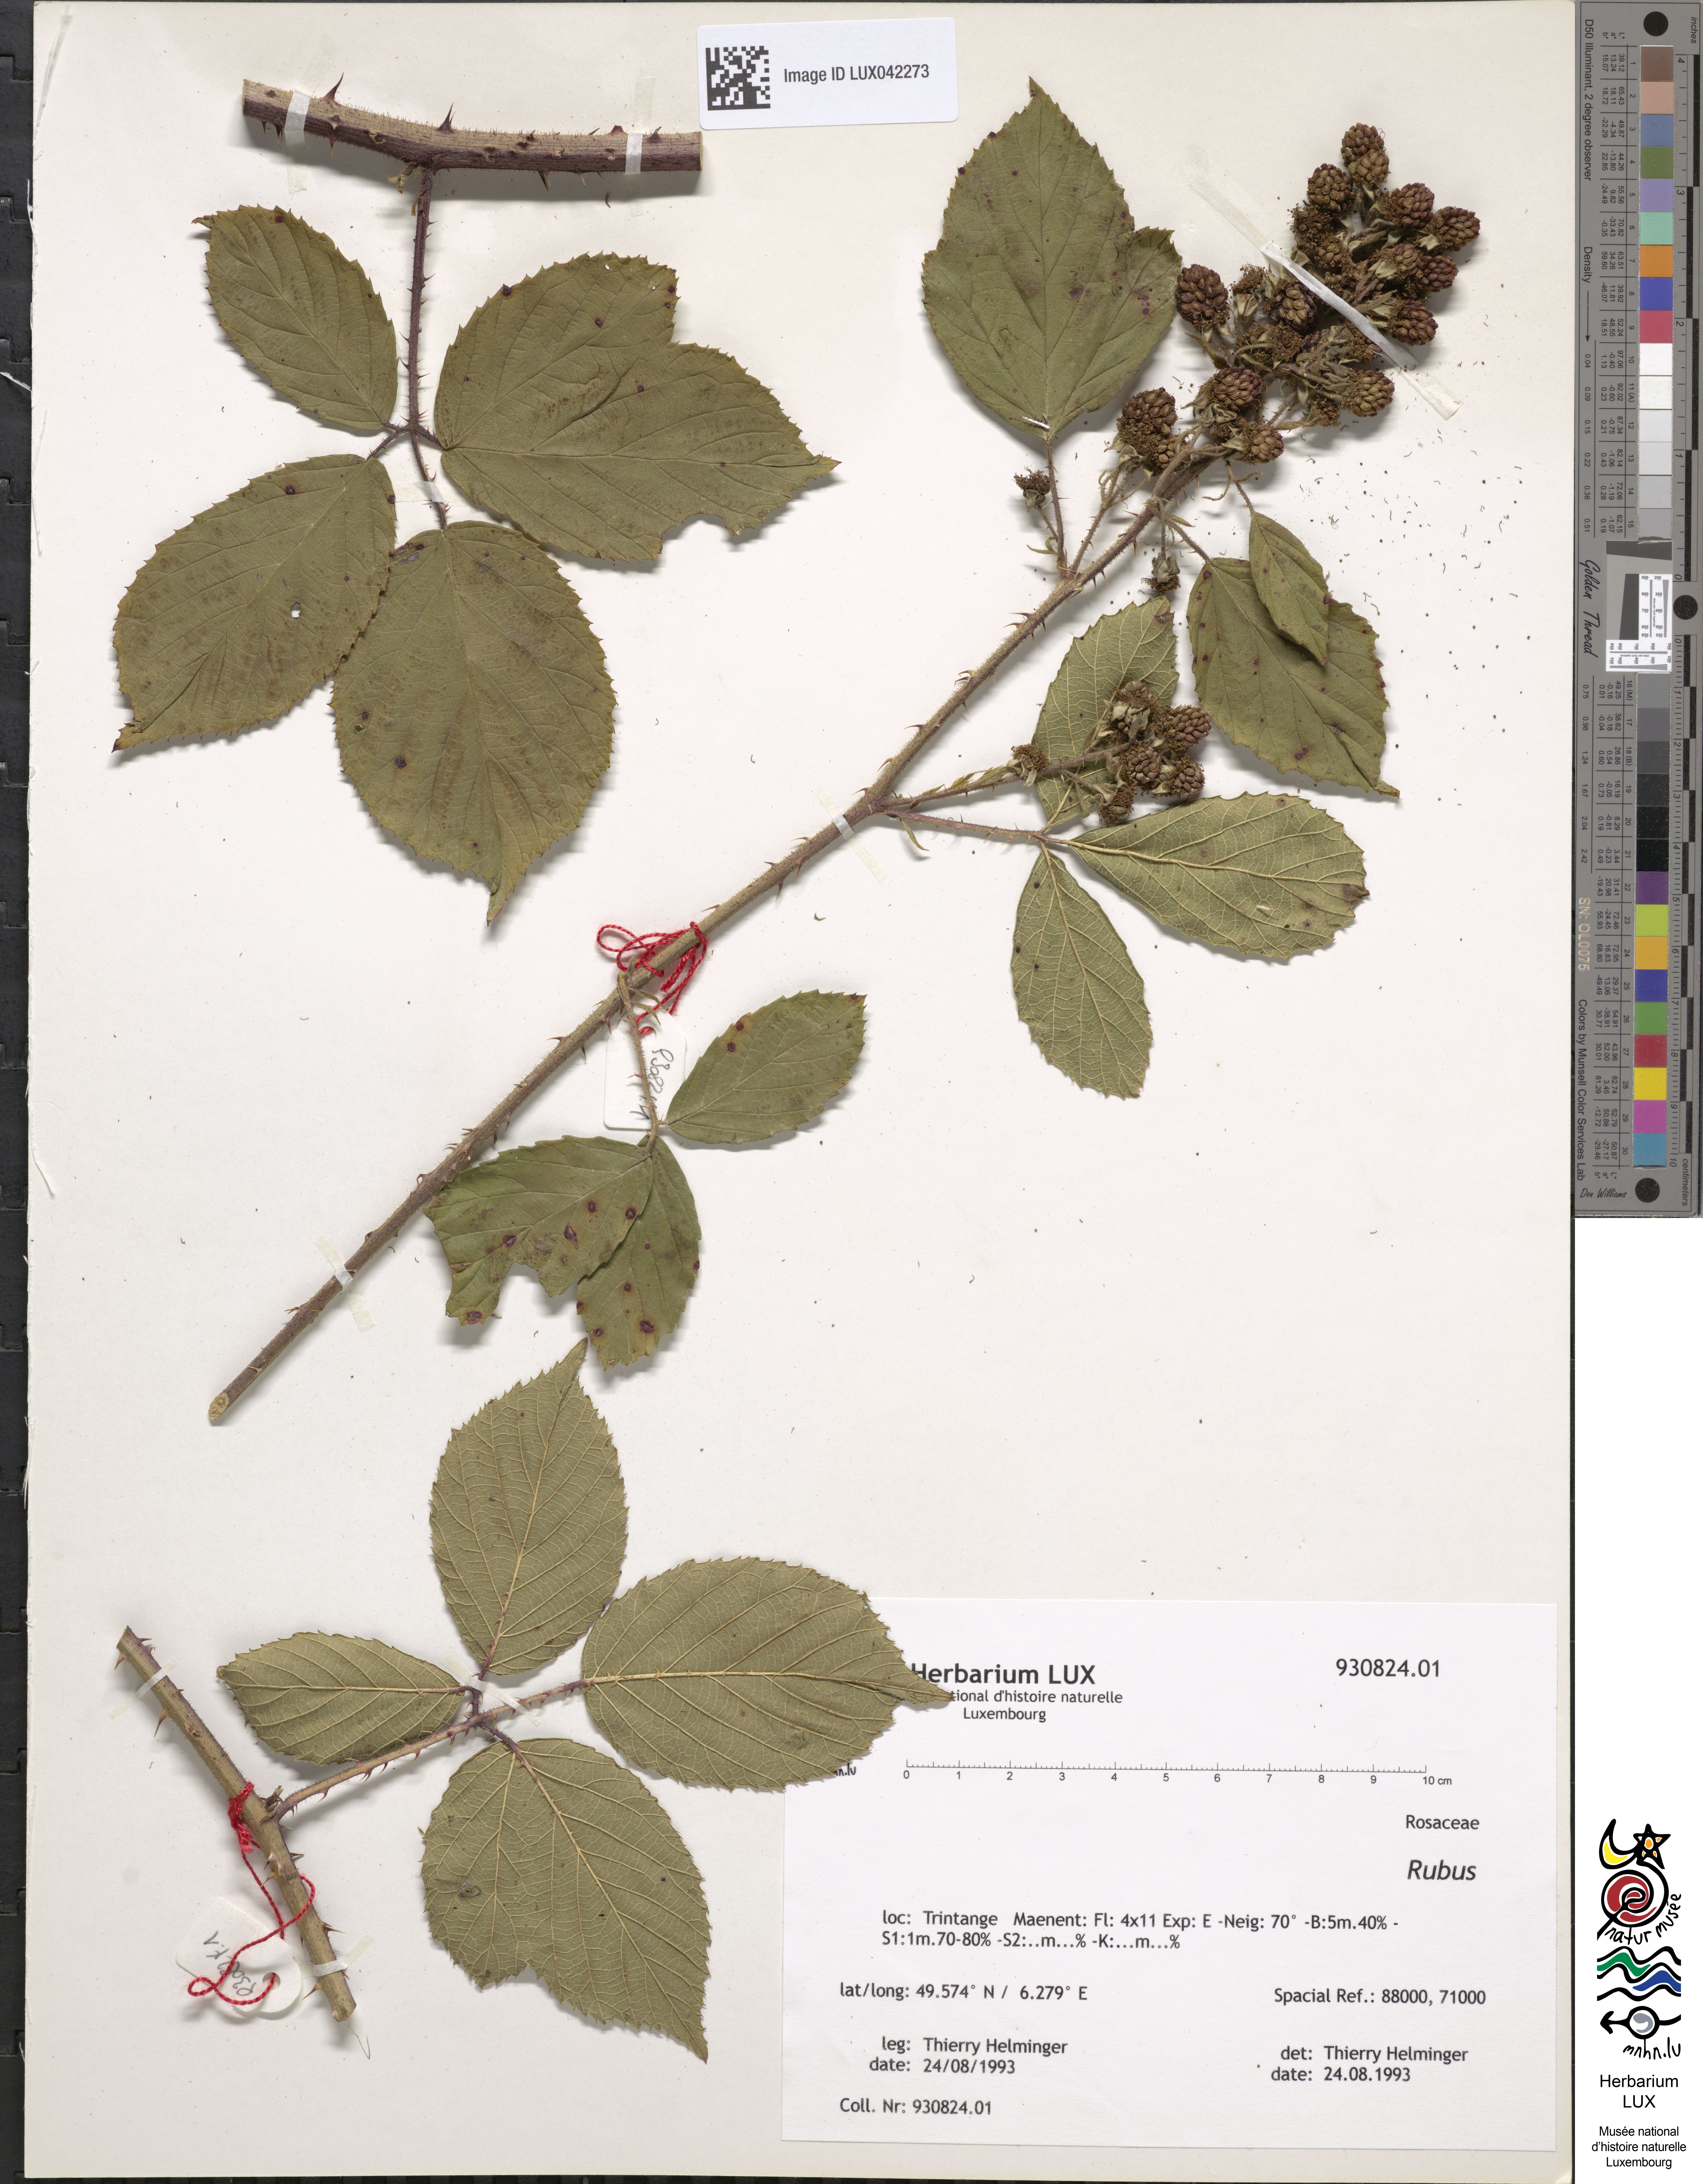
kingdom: Plantae
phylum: Tracheophyta
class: Magnoliopsida
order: Rosales
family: Rosaceae
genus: Rubus
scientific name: Rubus
